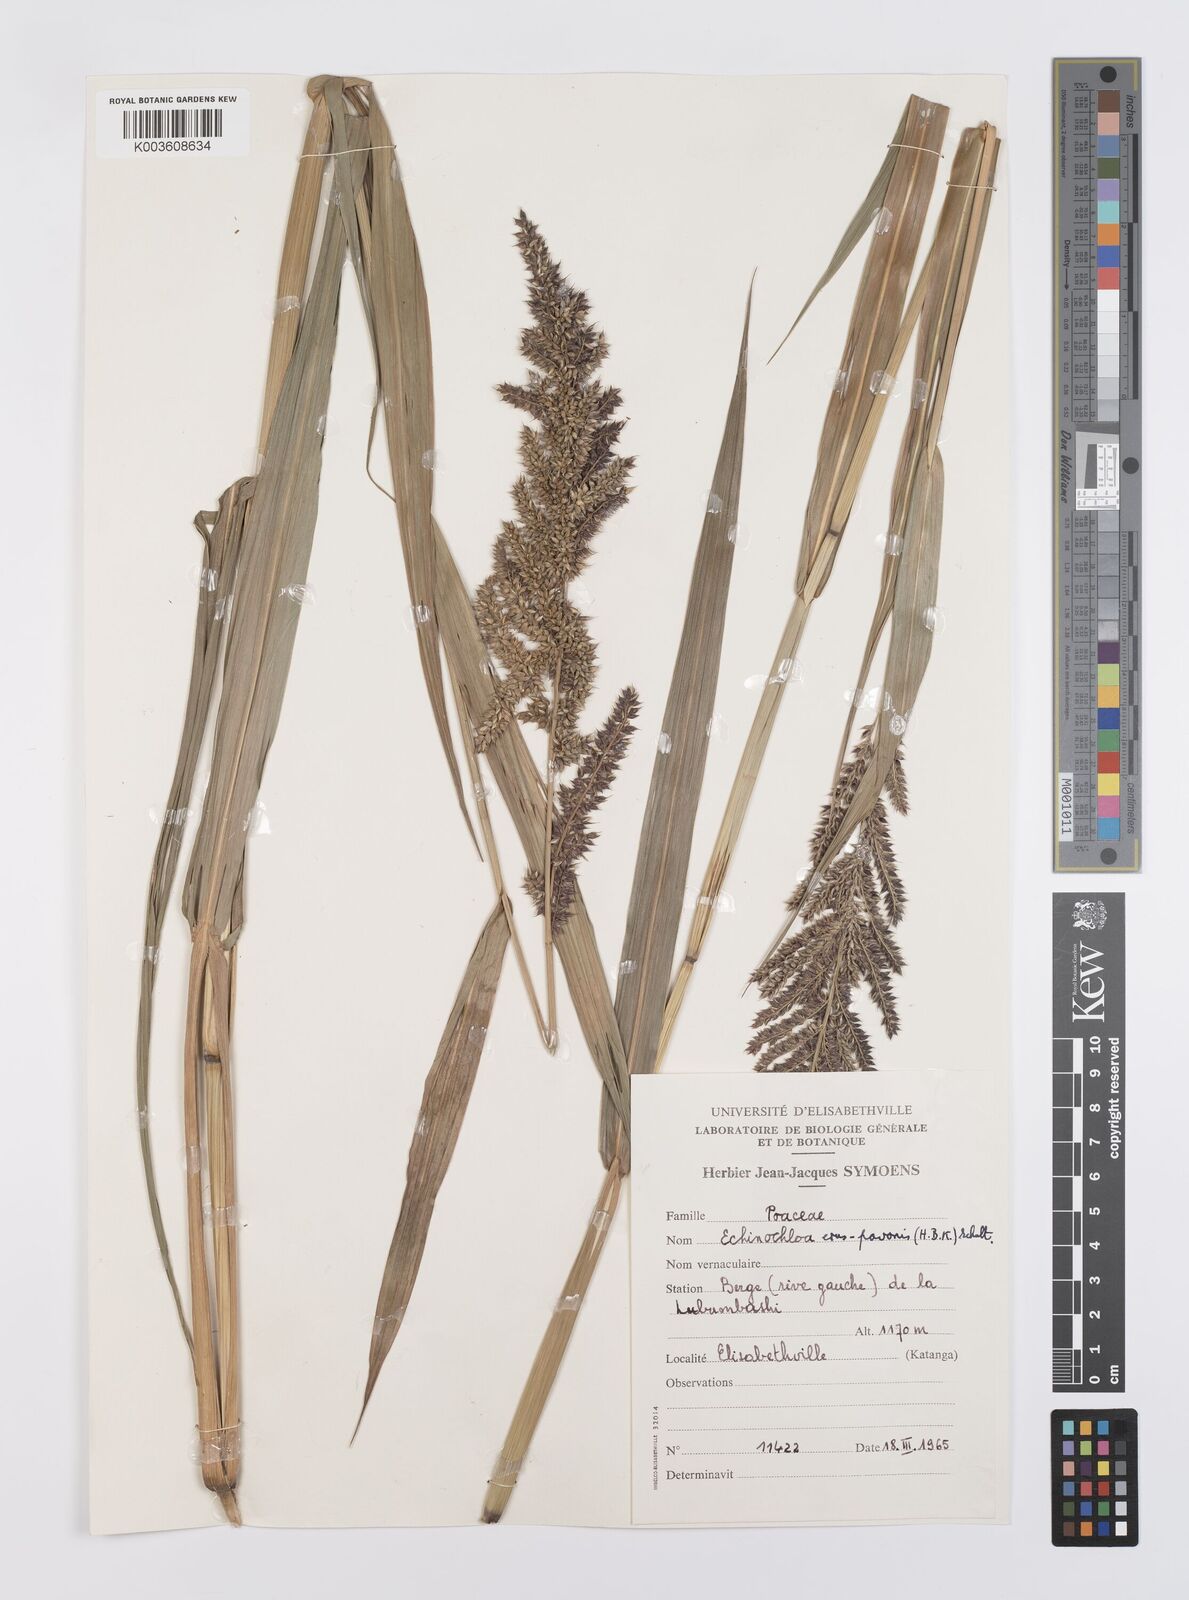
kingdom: Plantae
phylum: Tracheophyta
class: Liliopsida
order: Poales
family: Poaceae
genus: Echinochloa
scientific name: Echinochloa crus-pavonis
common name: Gulf cockspur grass
